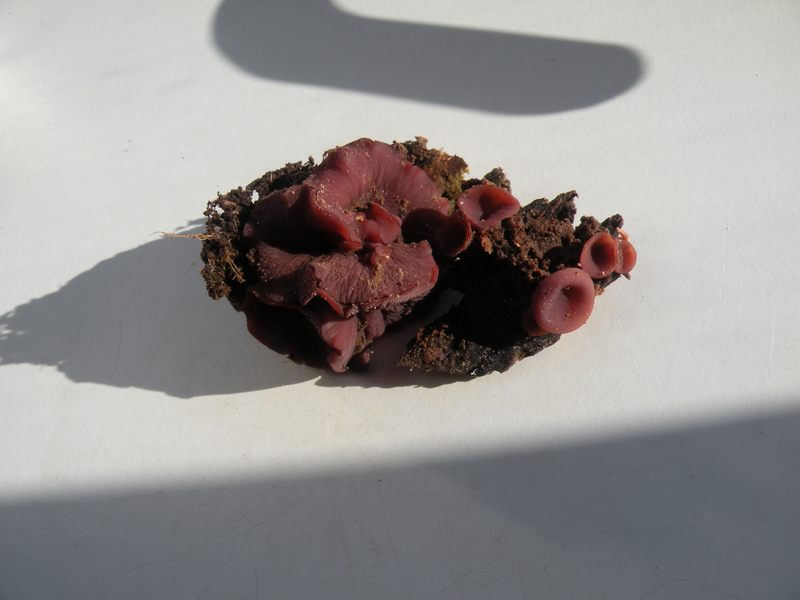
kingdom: Fungi
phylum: Ascomycota
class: Leotiomycetes
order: Helotiales
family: Gelatinodiscaceae
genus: Ascocoryne
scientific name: Ascocoryne sarcoides
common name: rødlilla sejskive
